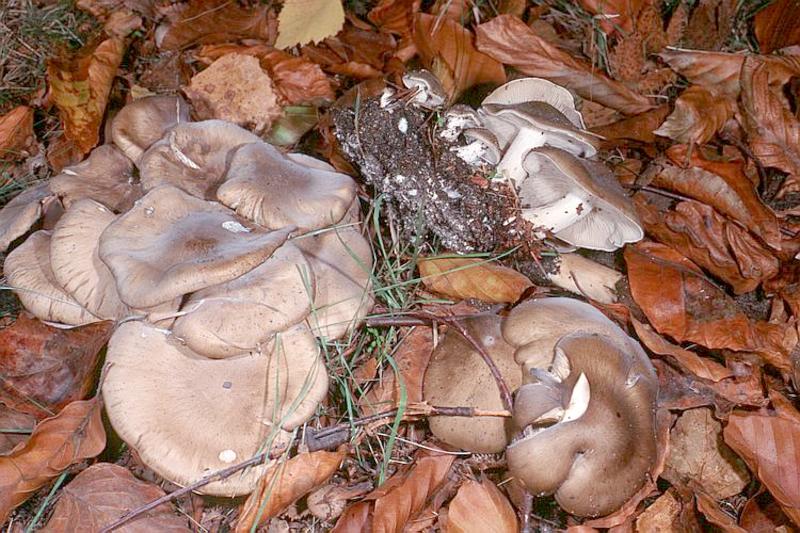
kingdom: Fungi
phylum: Basidiomycota
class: Agaricomycetes
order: Agaricales
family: Lyophyllaceae
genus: Lyophyllum
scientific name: Lyophyllum decastes
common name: Clustered domecap
